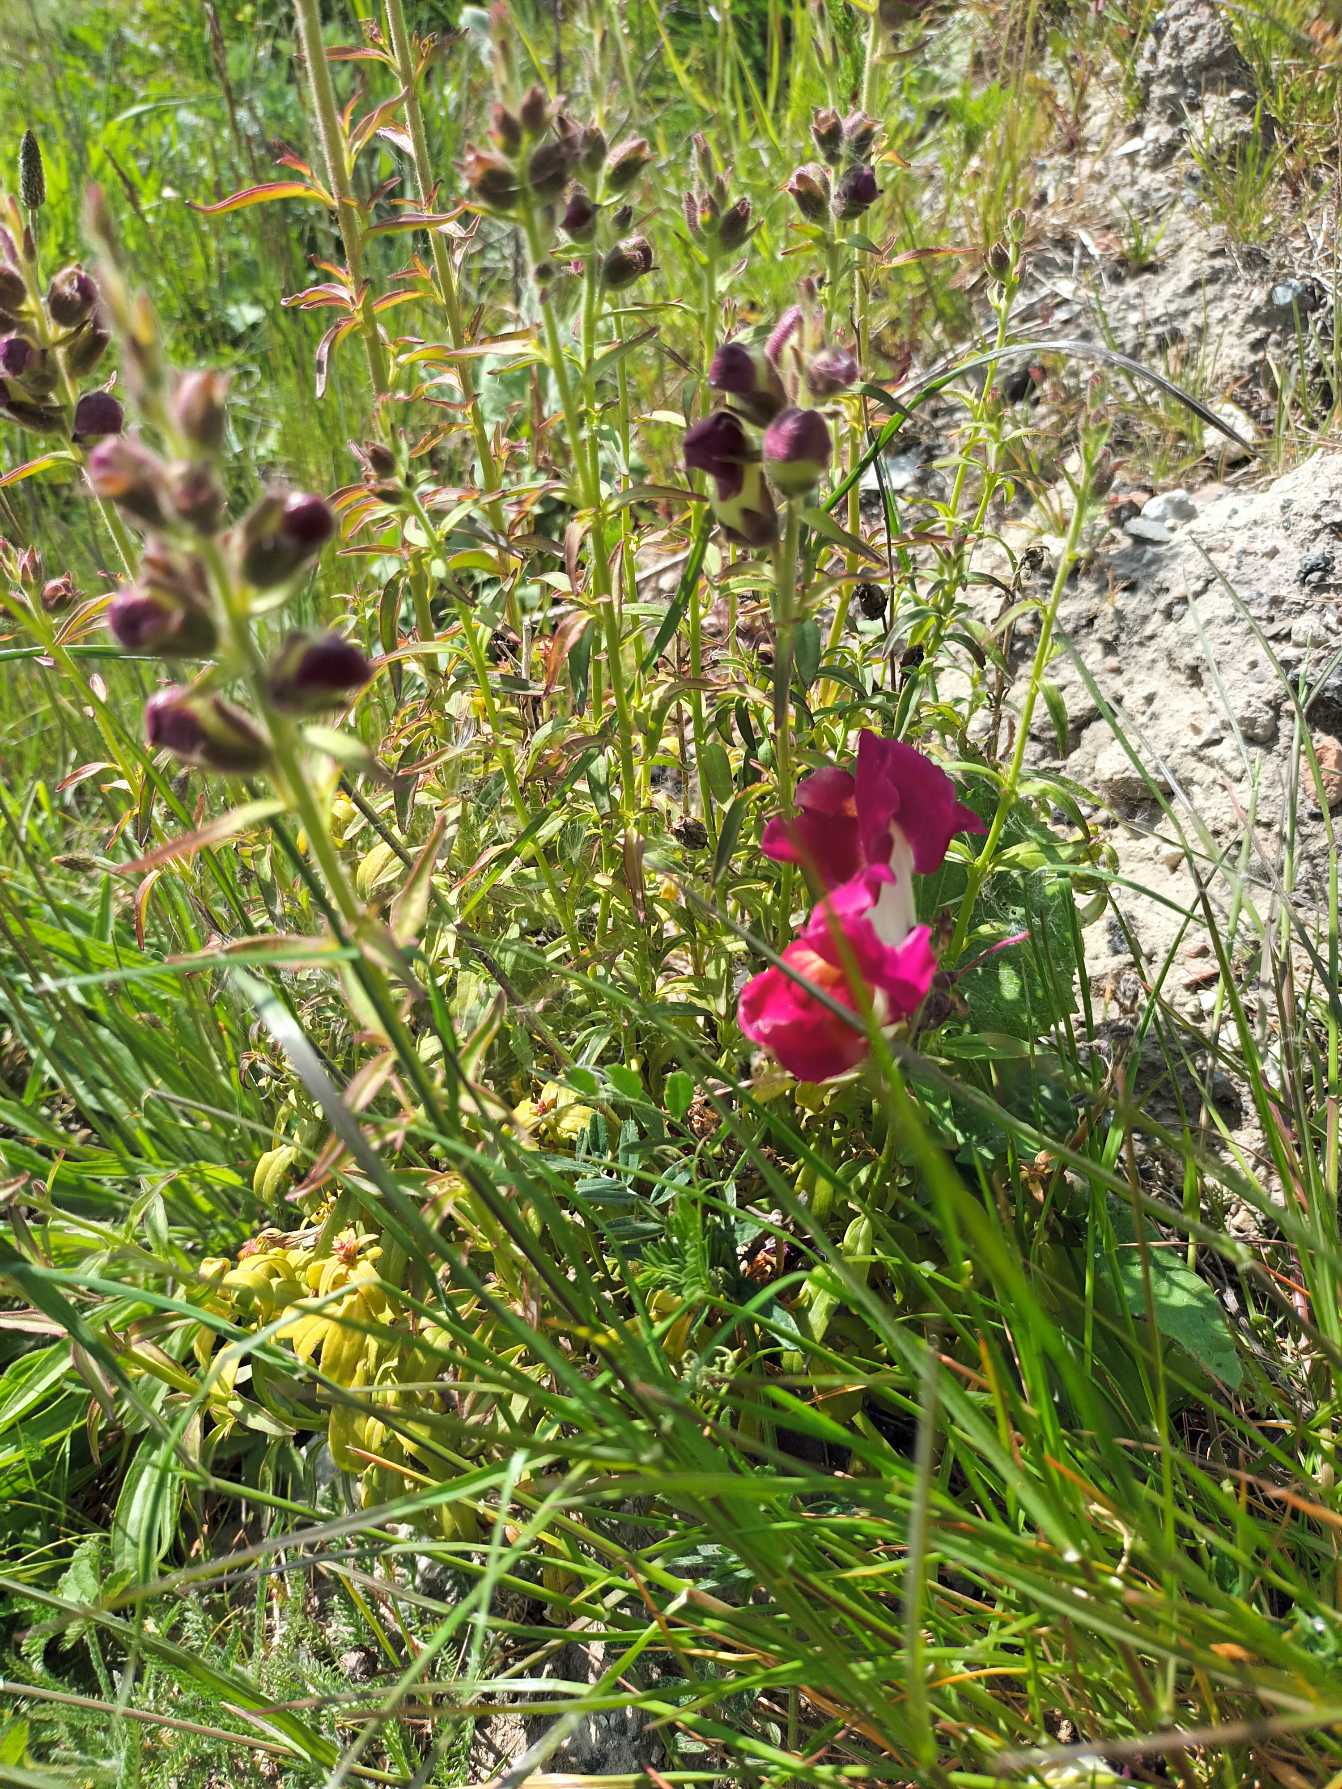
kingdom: Plantae
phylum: Tracheophyta
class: Magnoliopsida
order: Lamiales
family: Plantaginaceae
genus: Antirrhinum
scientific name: Antirrhinum majus
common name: Have-løvemund
